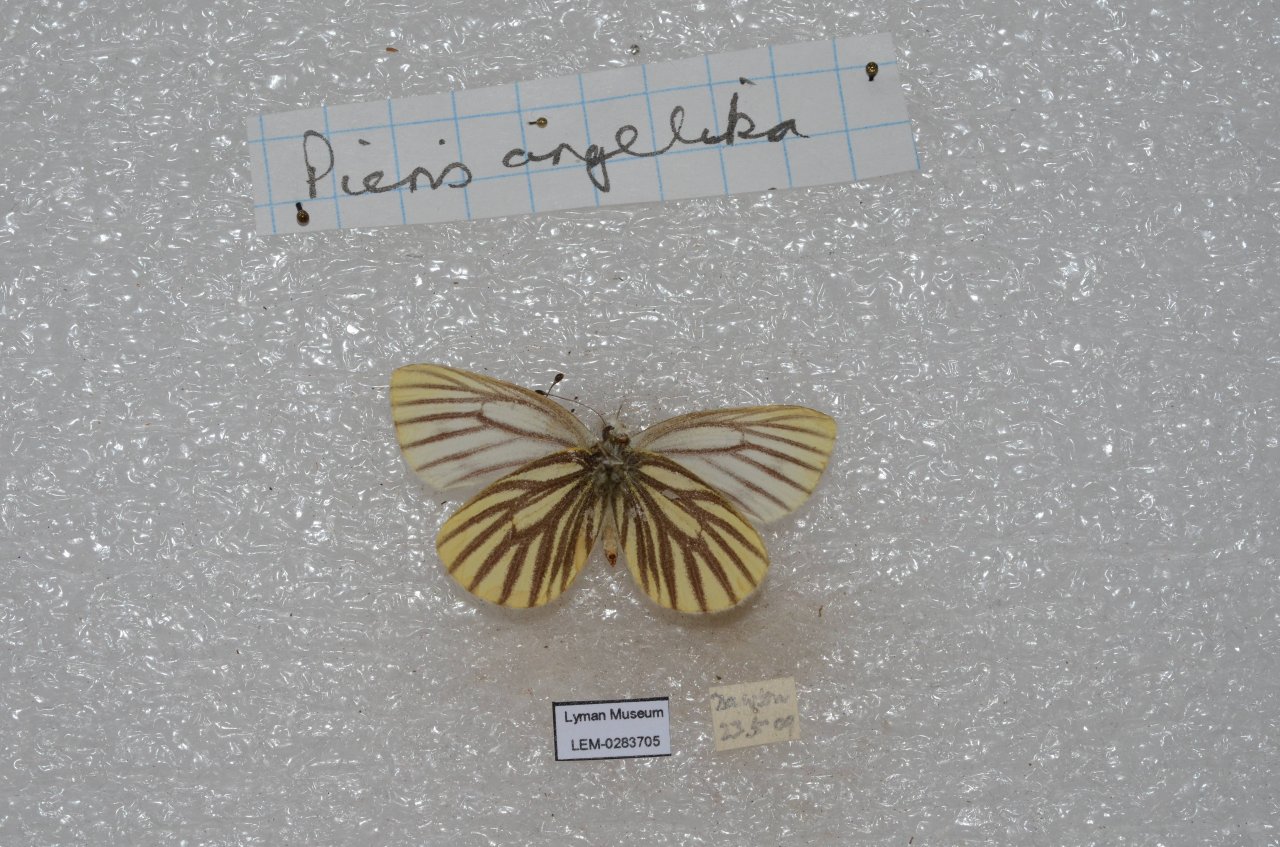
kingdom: Animalia
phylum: Arthropoda
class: Insecta
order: Lepidoptera
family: Pieridae
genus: Pieris
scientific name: Pieris angelika
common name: Arctic White
